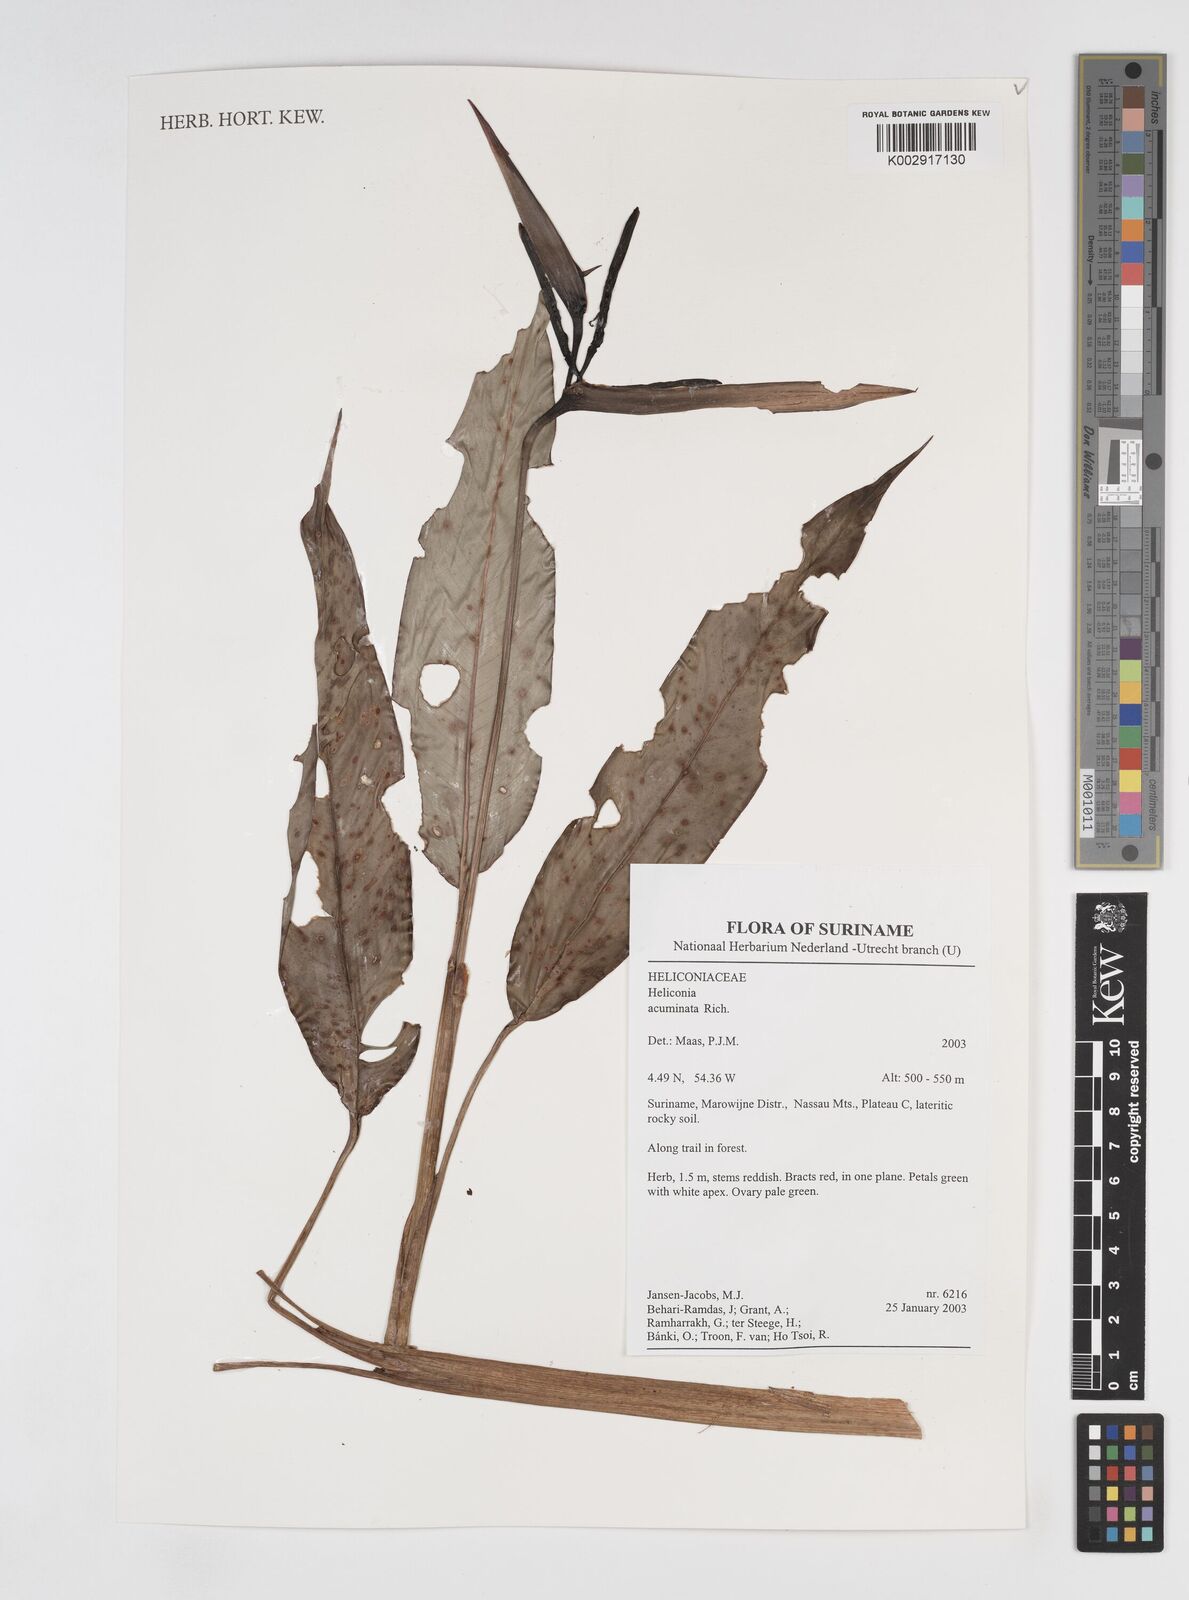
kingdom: Plantae
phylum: Tracheophyta
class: Liliopsida
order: Zingiberales
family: Heliconiaceae
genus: Heliconia
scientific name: Heliconia acuminata
